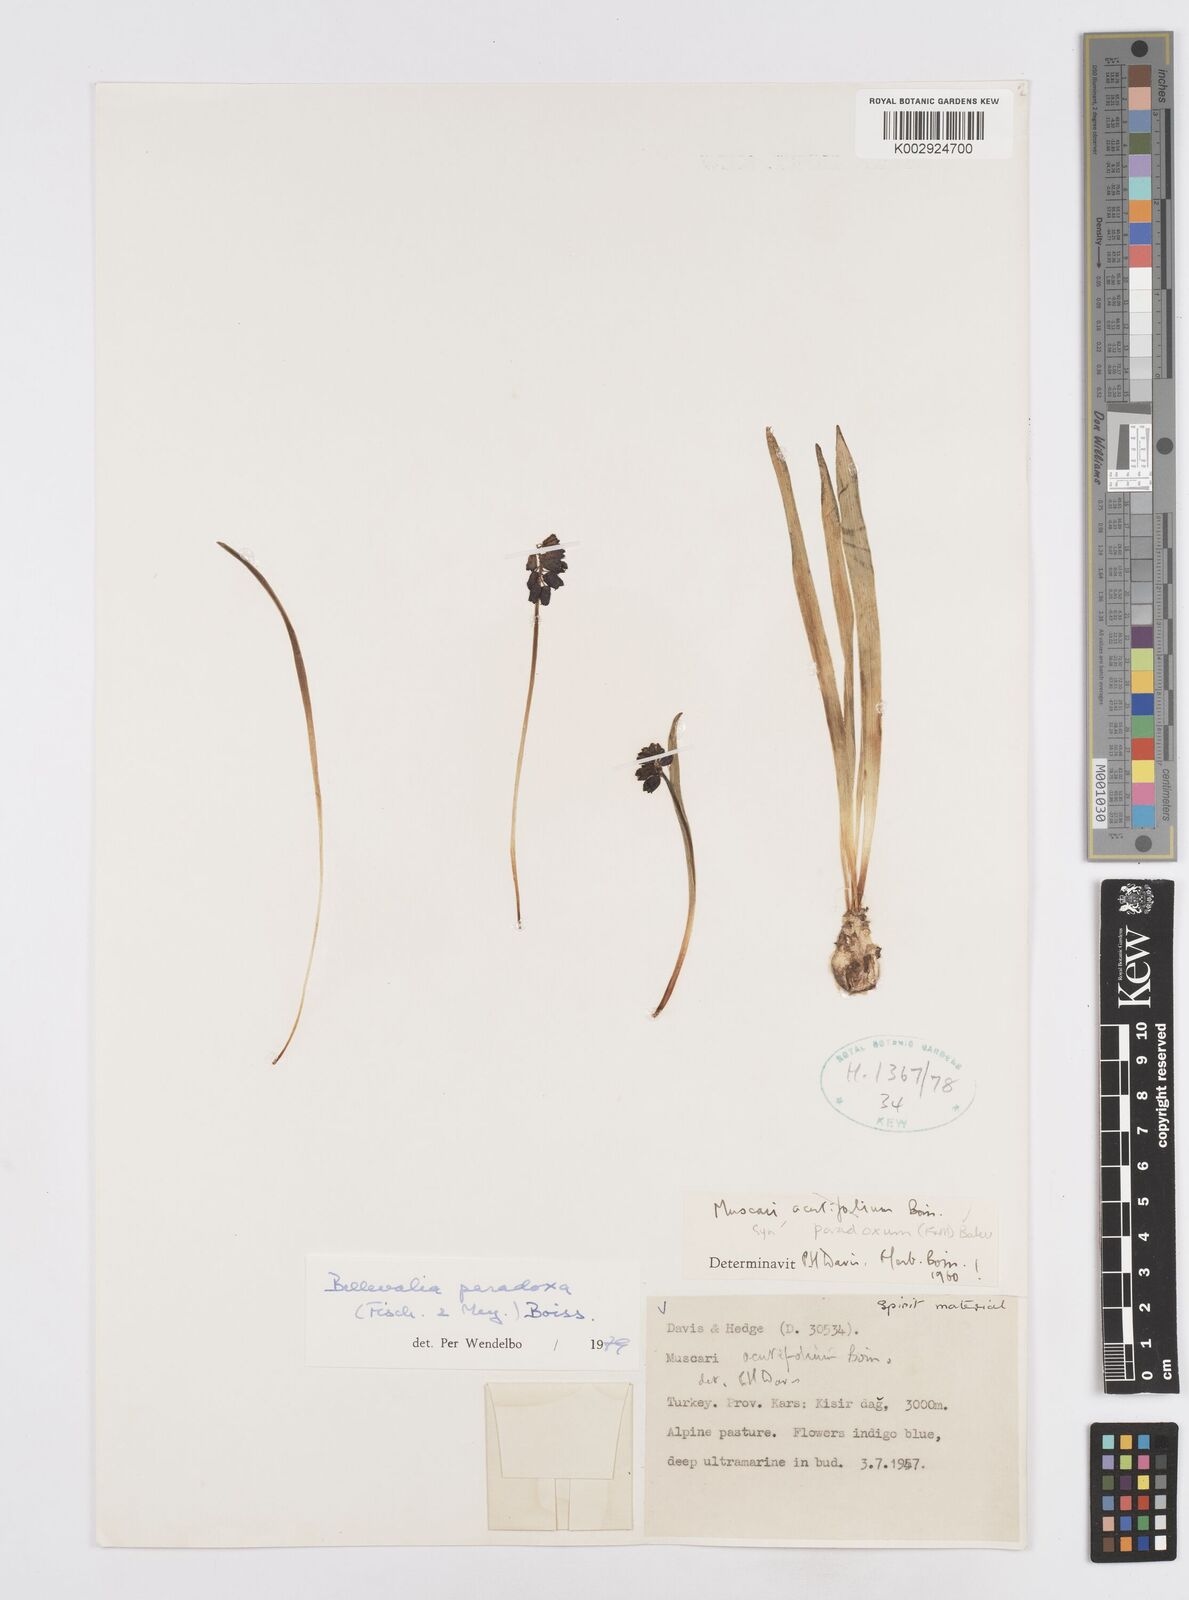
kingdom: Plantae
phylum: Tracheophyta
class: Liliopsida
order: Asparagales
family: Asparagaceae
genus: Bellevalia
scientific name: Bellevalia paradoxa
